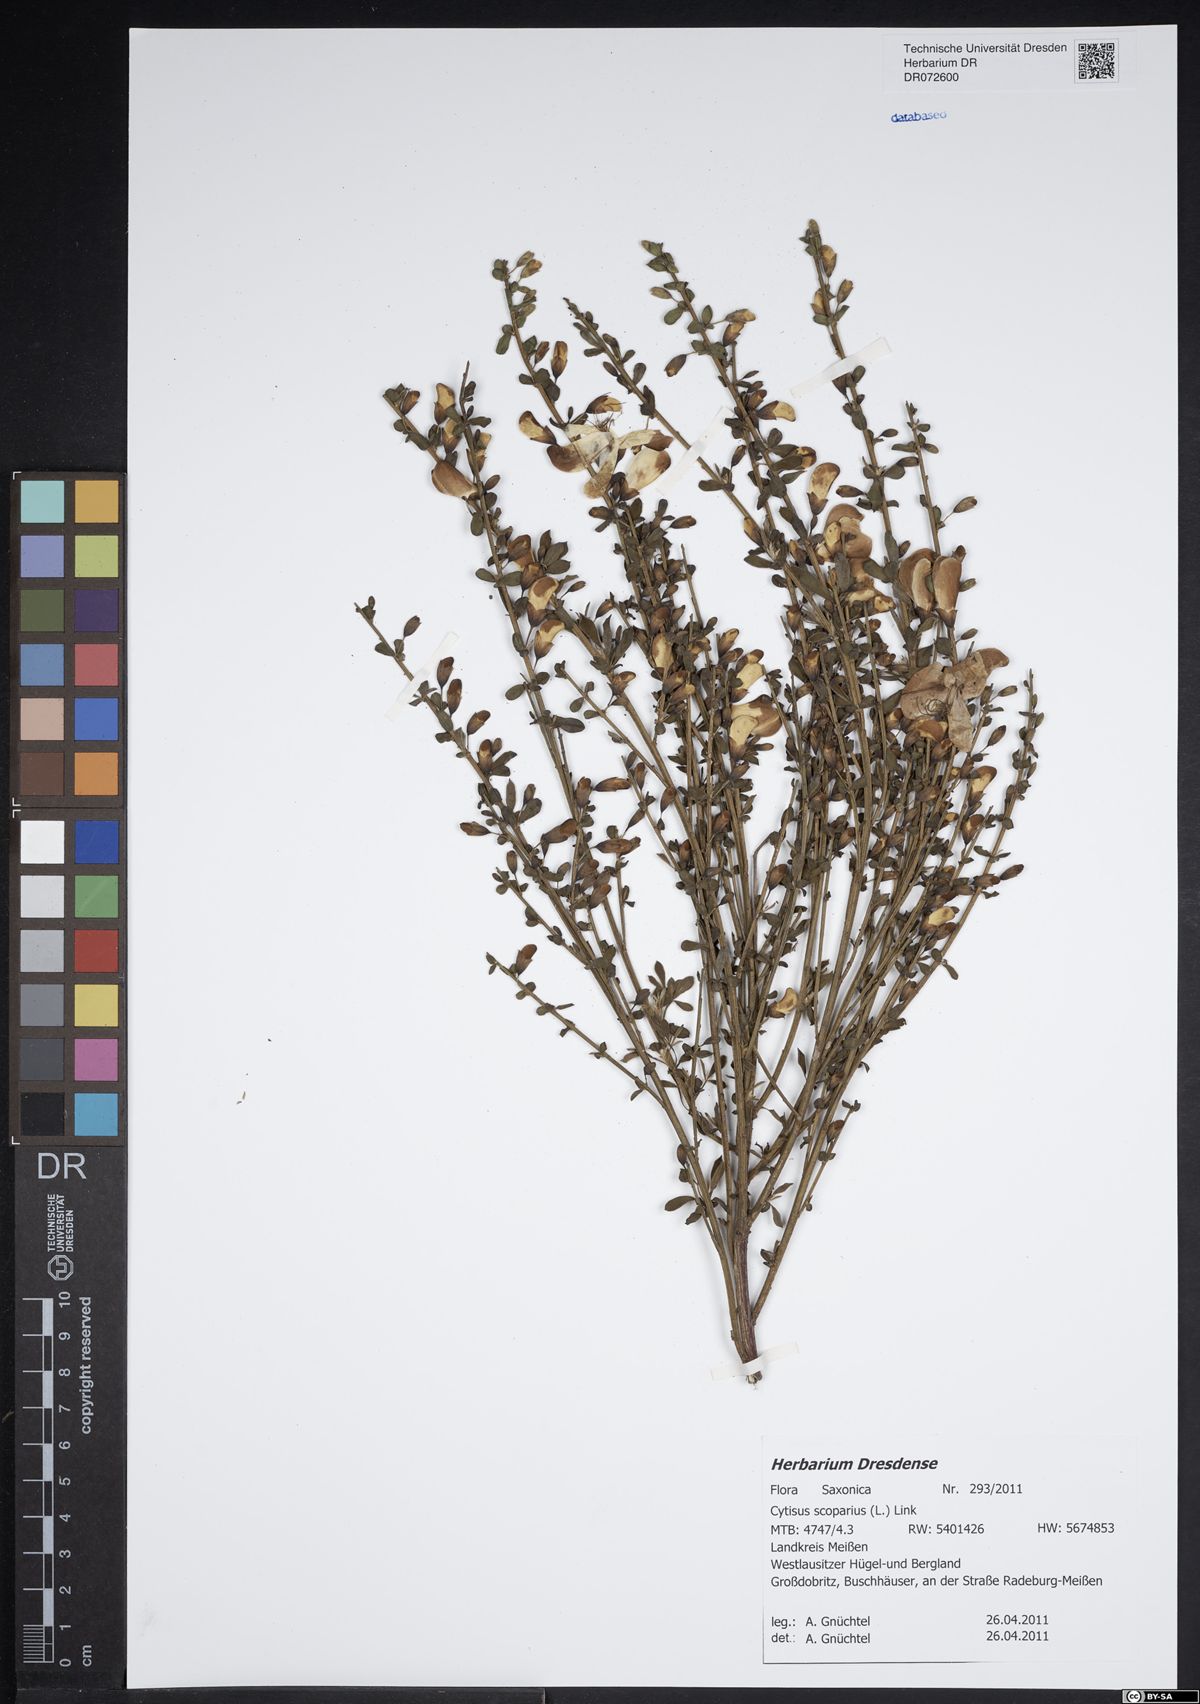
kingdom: Plantae
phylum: Tracheophyta
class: Magnoliopsida
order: Fabales
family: Fabaceae
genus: Cytisus
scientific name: Cytisus scoparius
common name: Scotch broom
